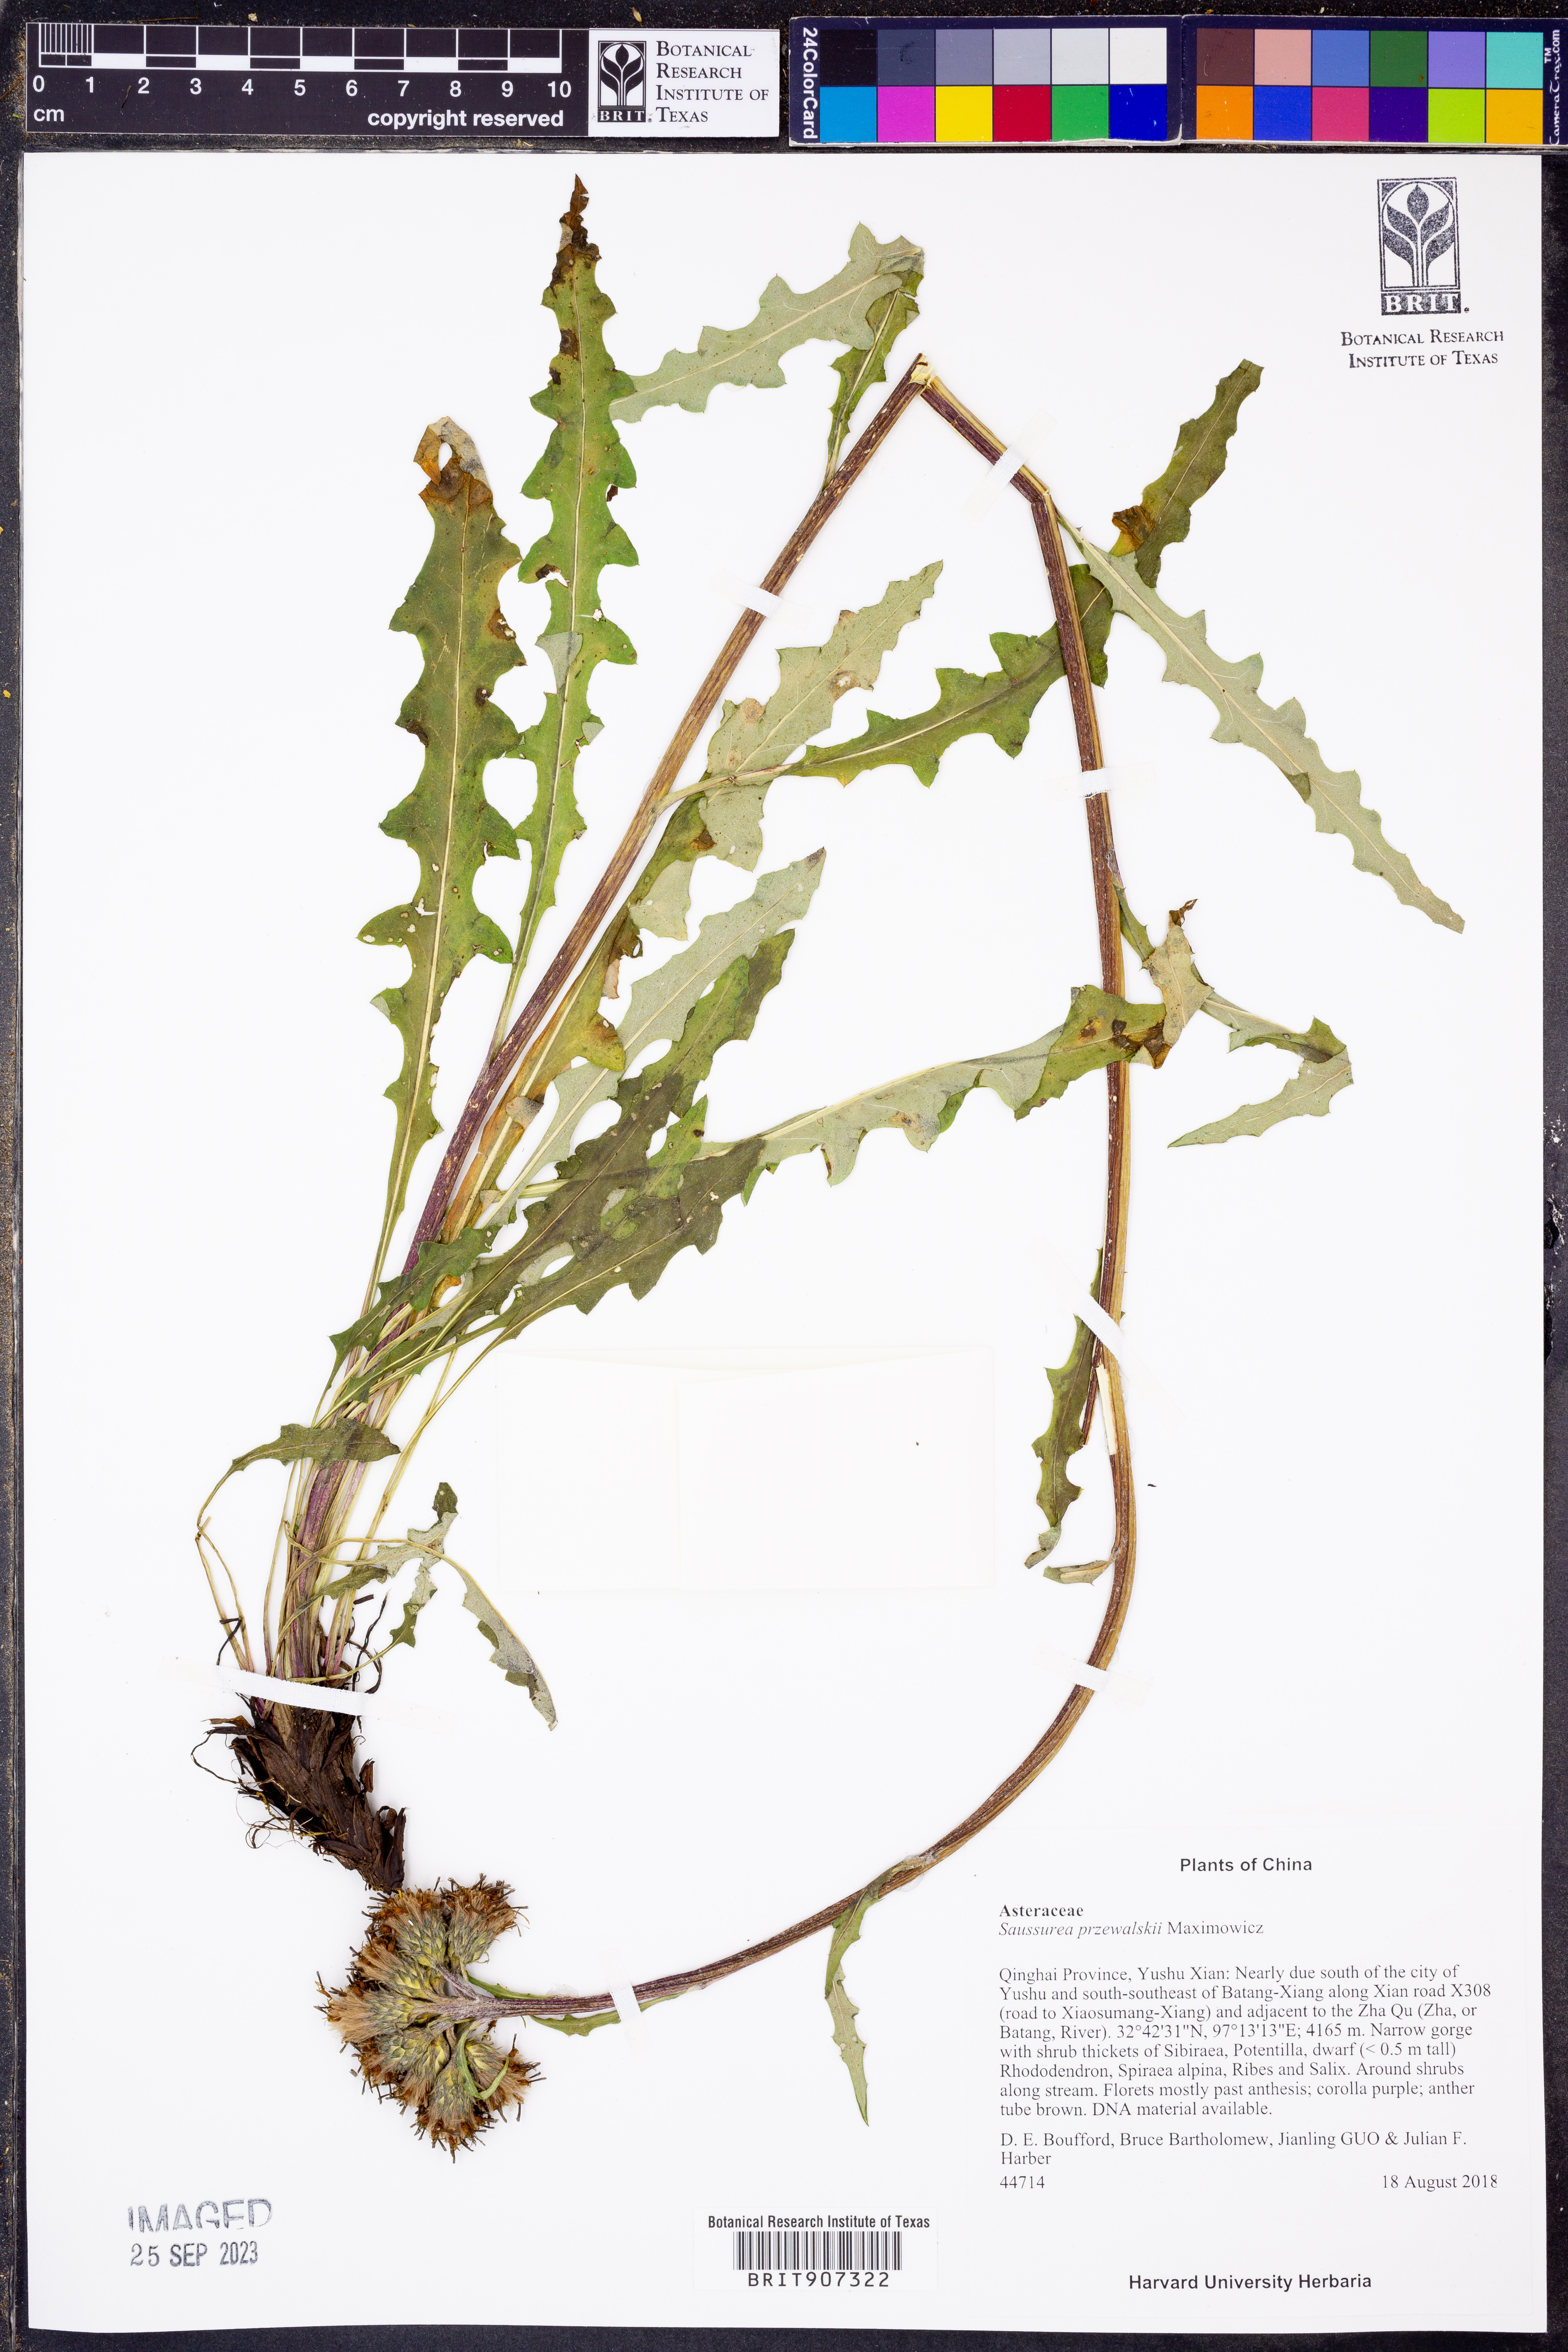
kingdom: Plantae
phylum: Tracheophyta
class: Magnoliopsida
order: Asterales
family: Asteraceae
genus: Saussurea
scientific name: Saussurea przewalskii
